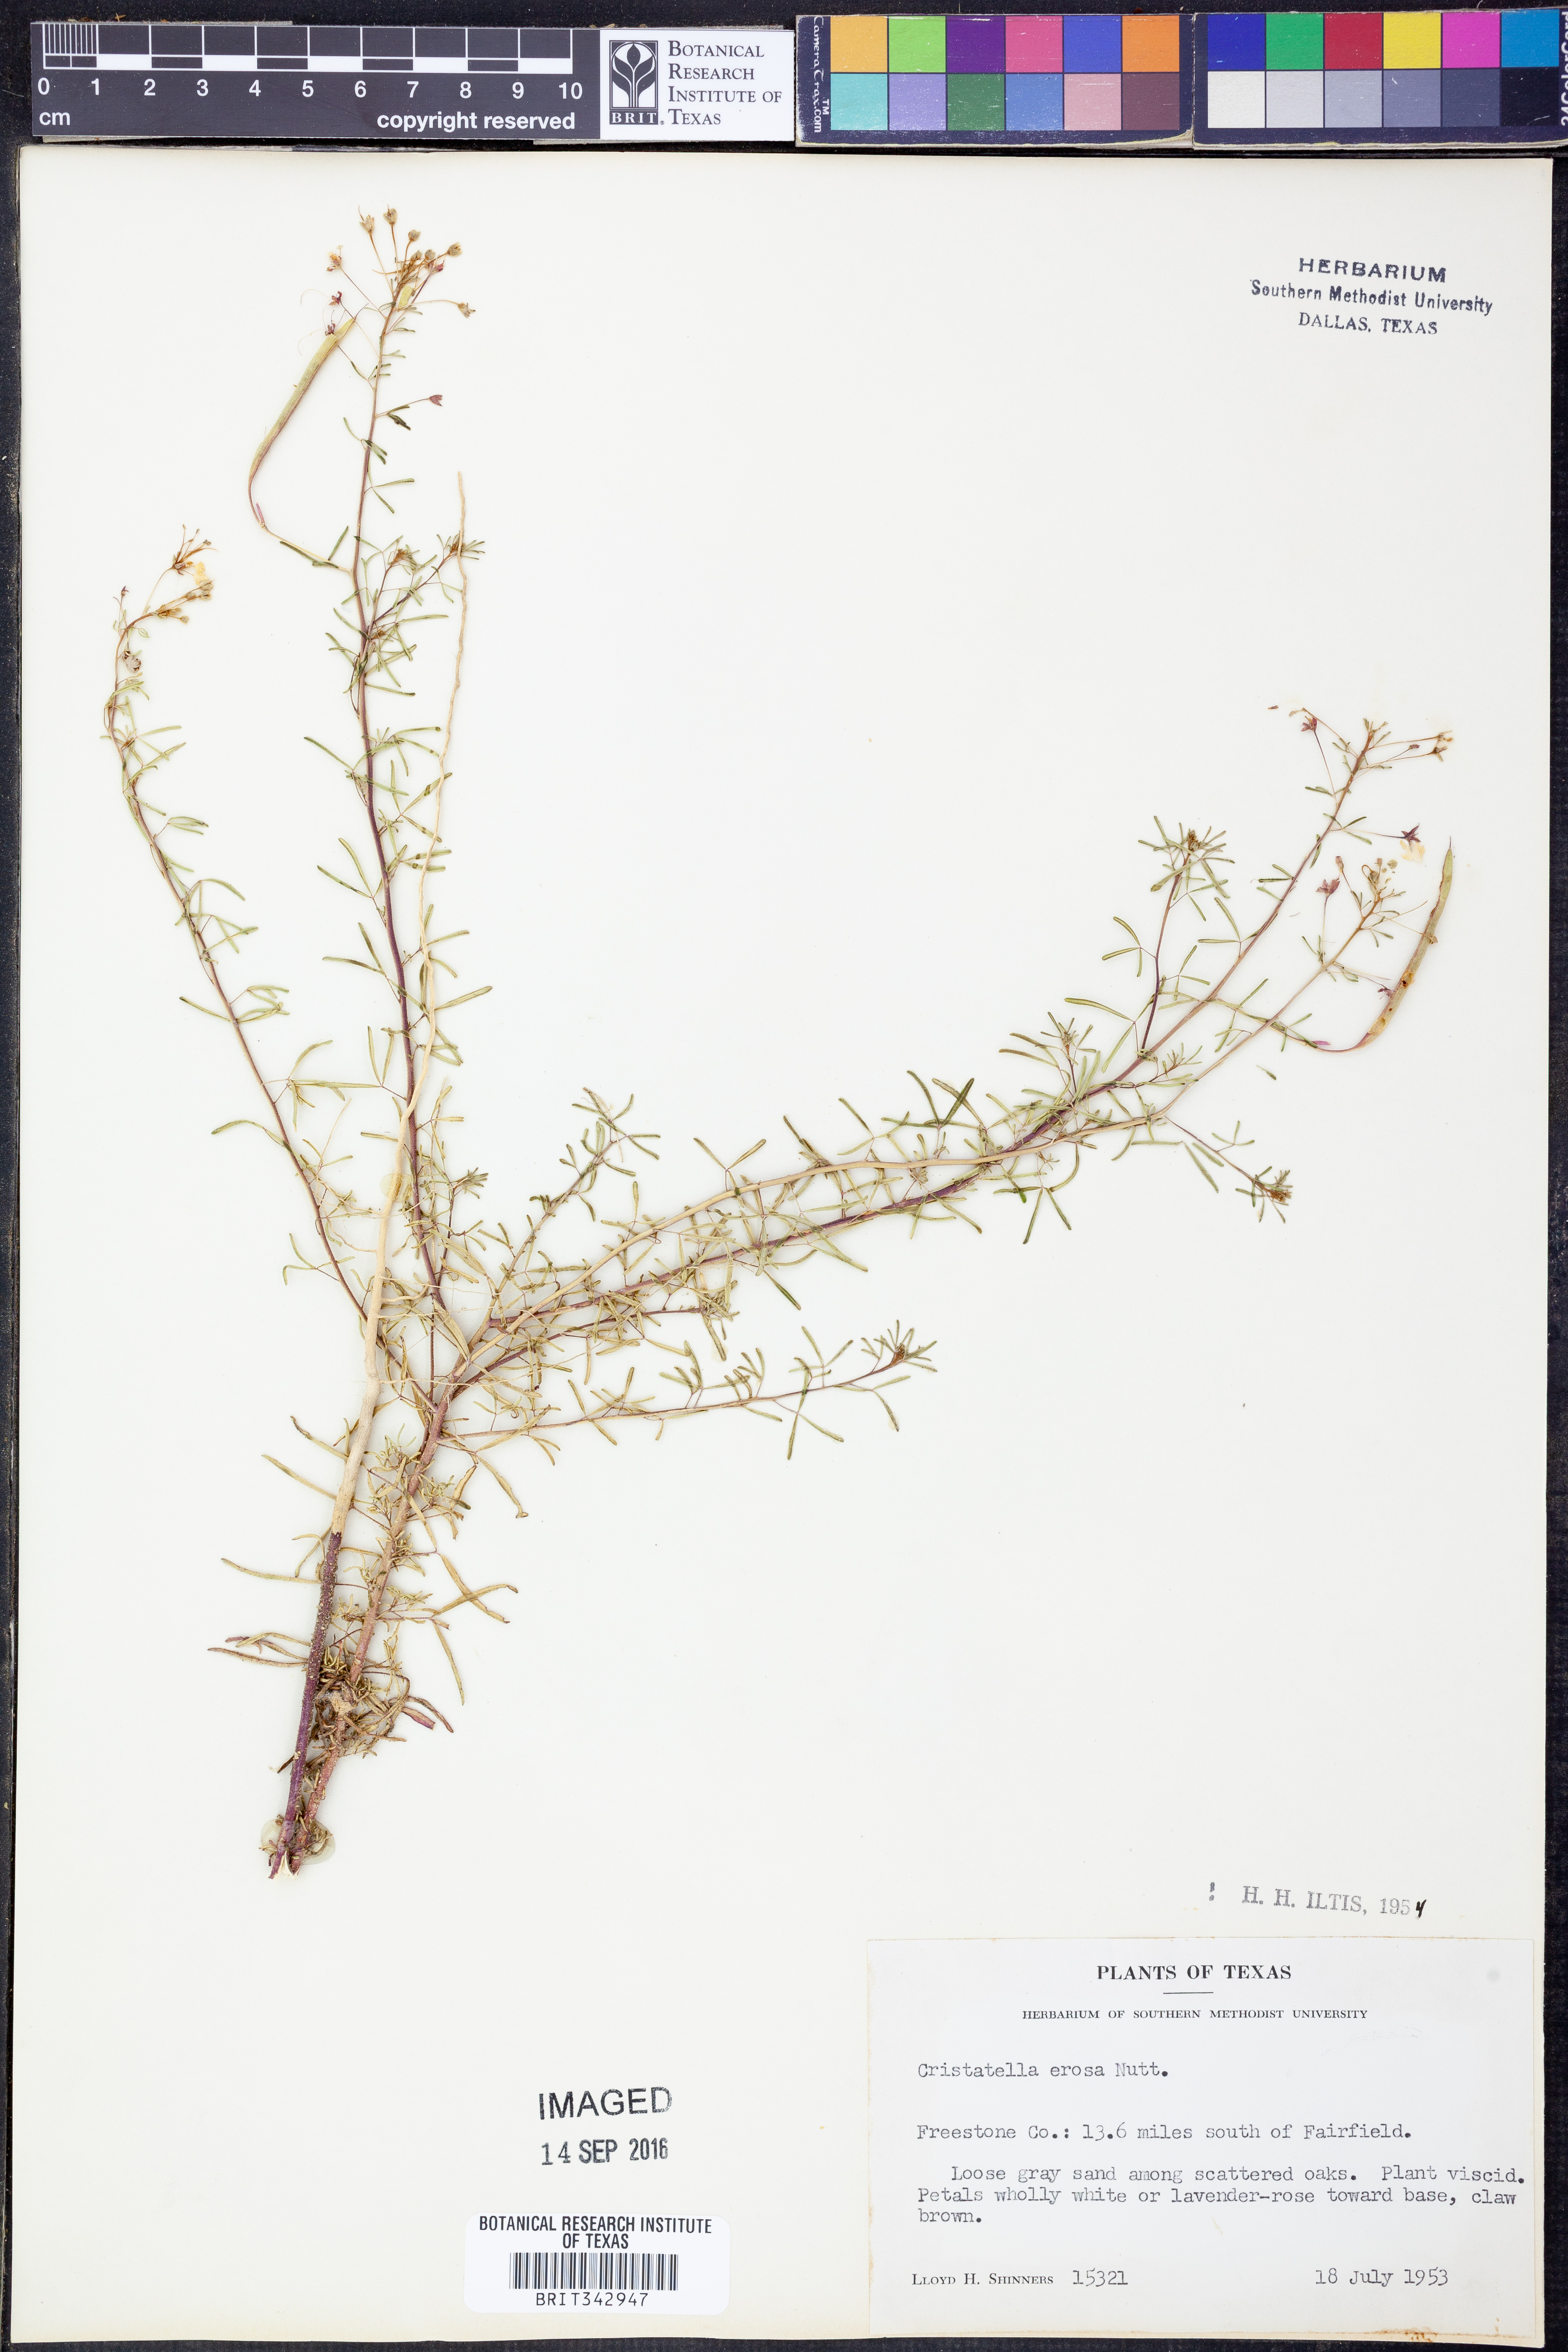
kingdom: Plantae
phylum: Tracheophyta
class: Magnoliopsida
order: Brassicales
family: Cleomaceae
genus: Polanisia
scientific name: Polanisia erosa
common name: Large clammyweed
